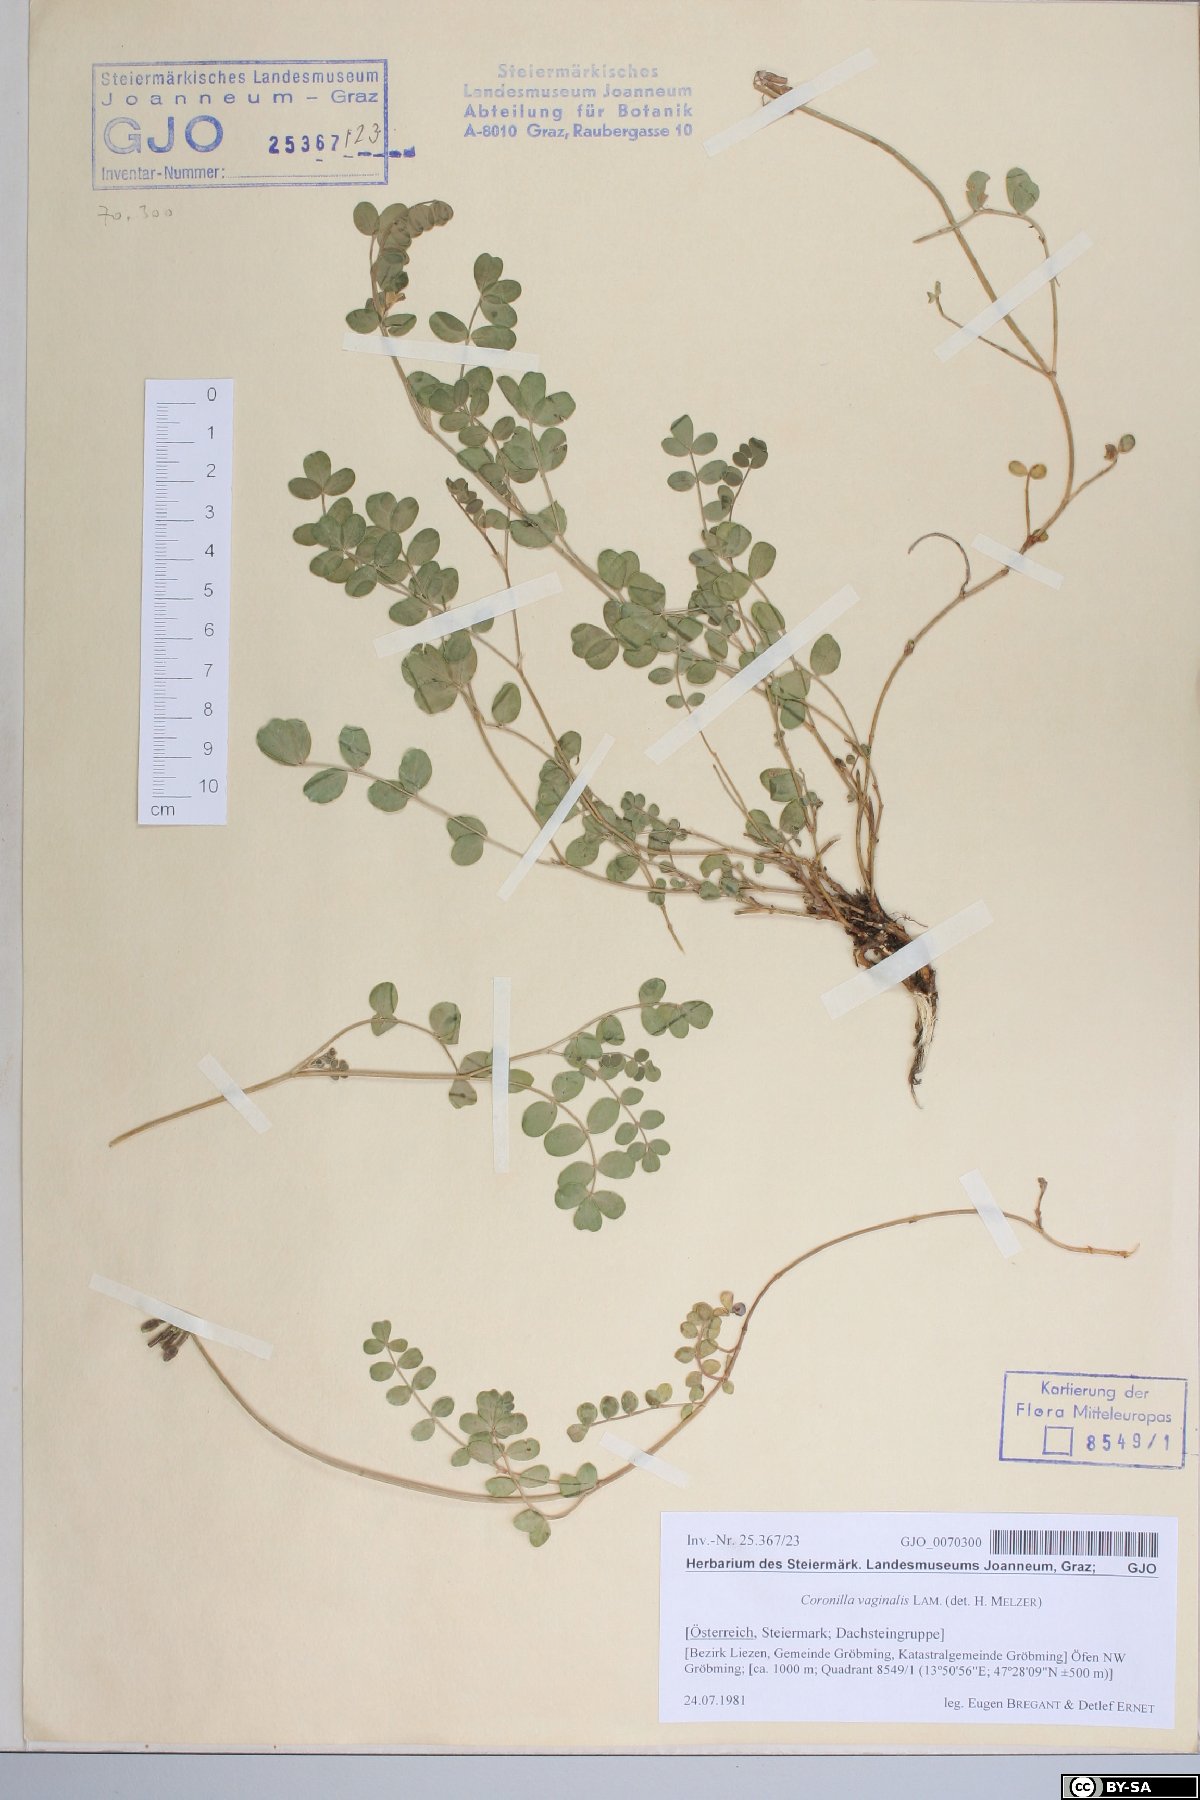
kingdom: Plantae
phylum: Tracheophyta
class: Magnoliopsida
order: Fabales
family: Fabaceae
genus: Coronilla
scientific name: Coronilla vaginalis
